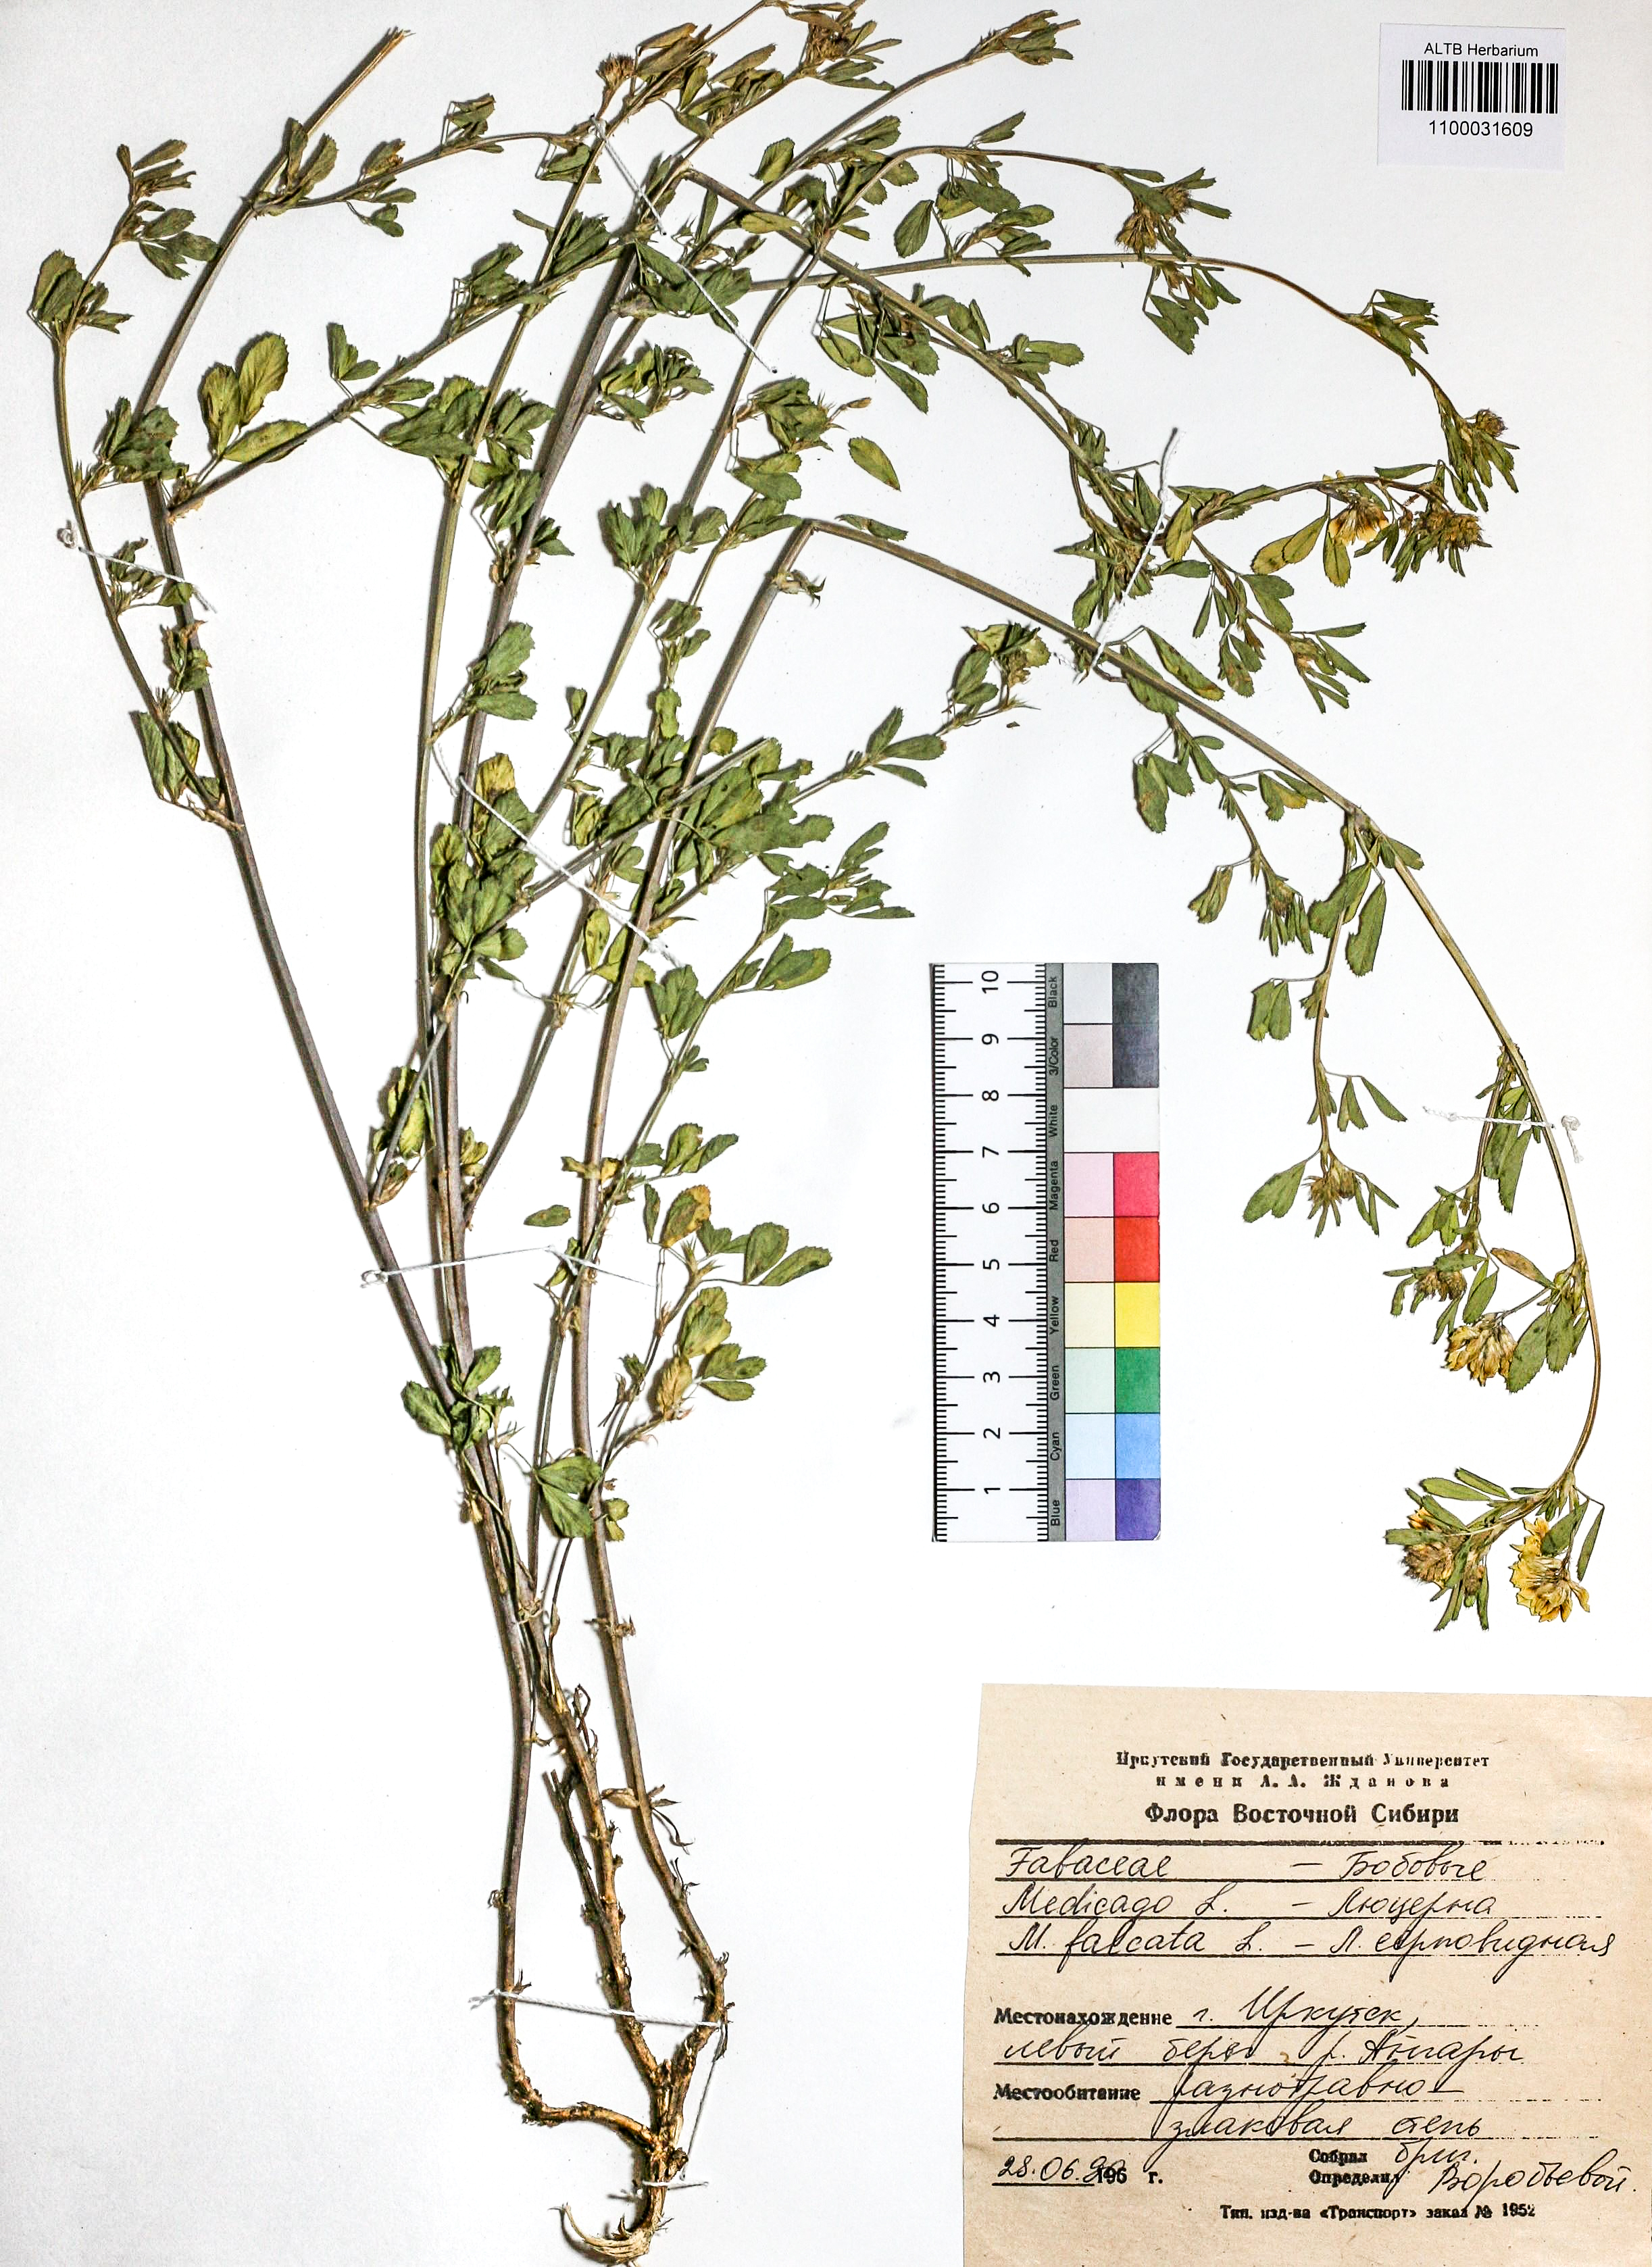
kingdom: Plantae
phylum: Tracheophyta
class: Magnoliopsida
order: Fabales
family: Fabaceae
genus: Medicago
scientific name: Medicago falcata
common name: Sickle medick
